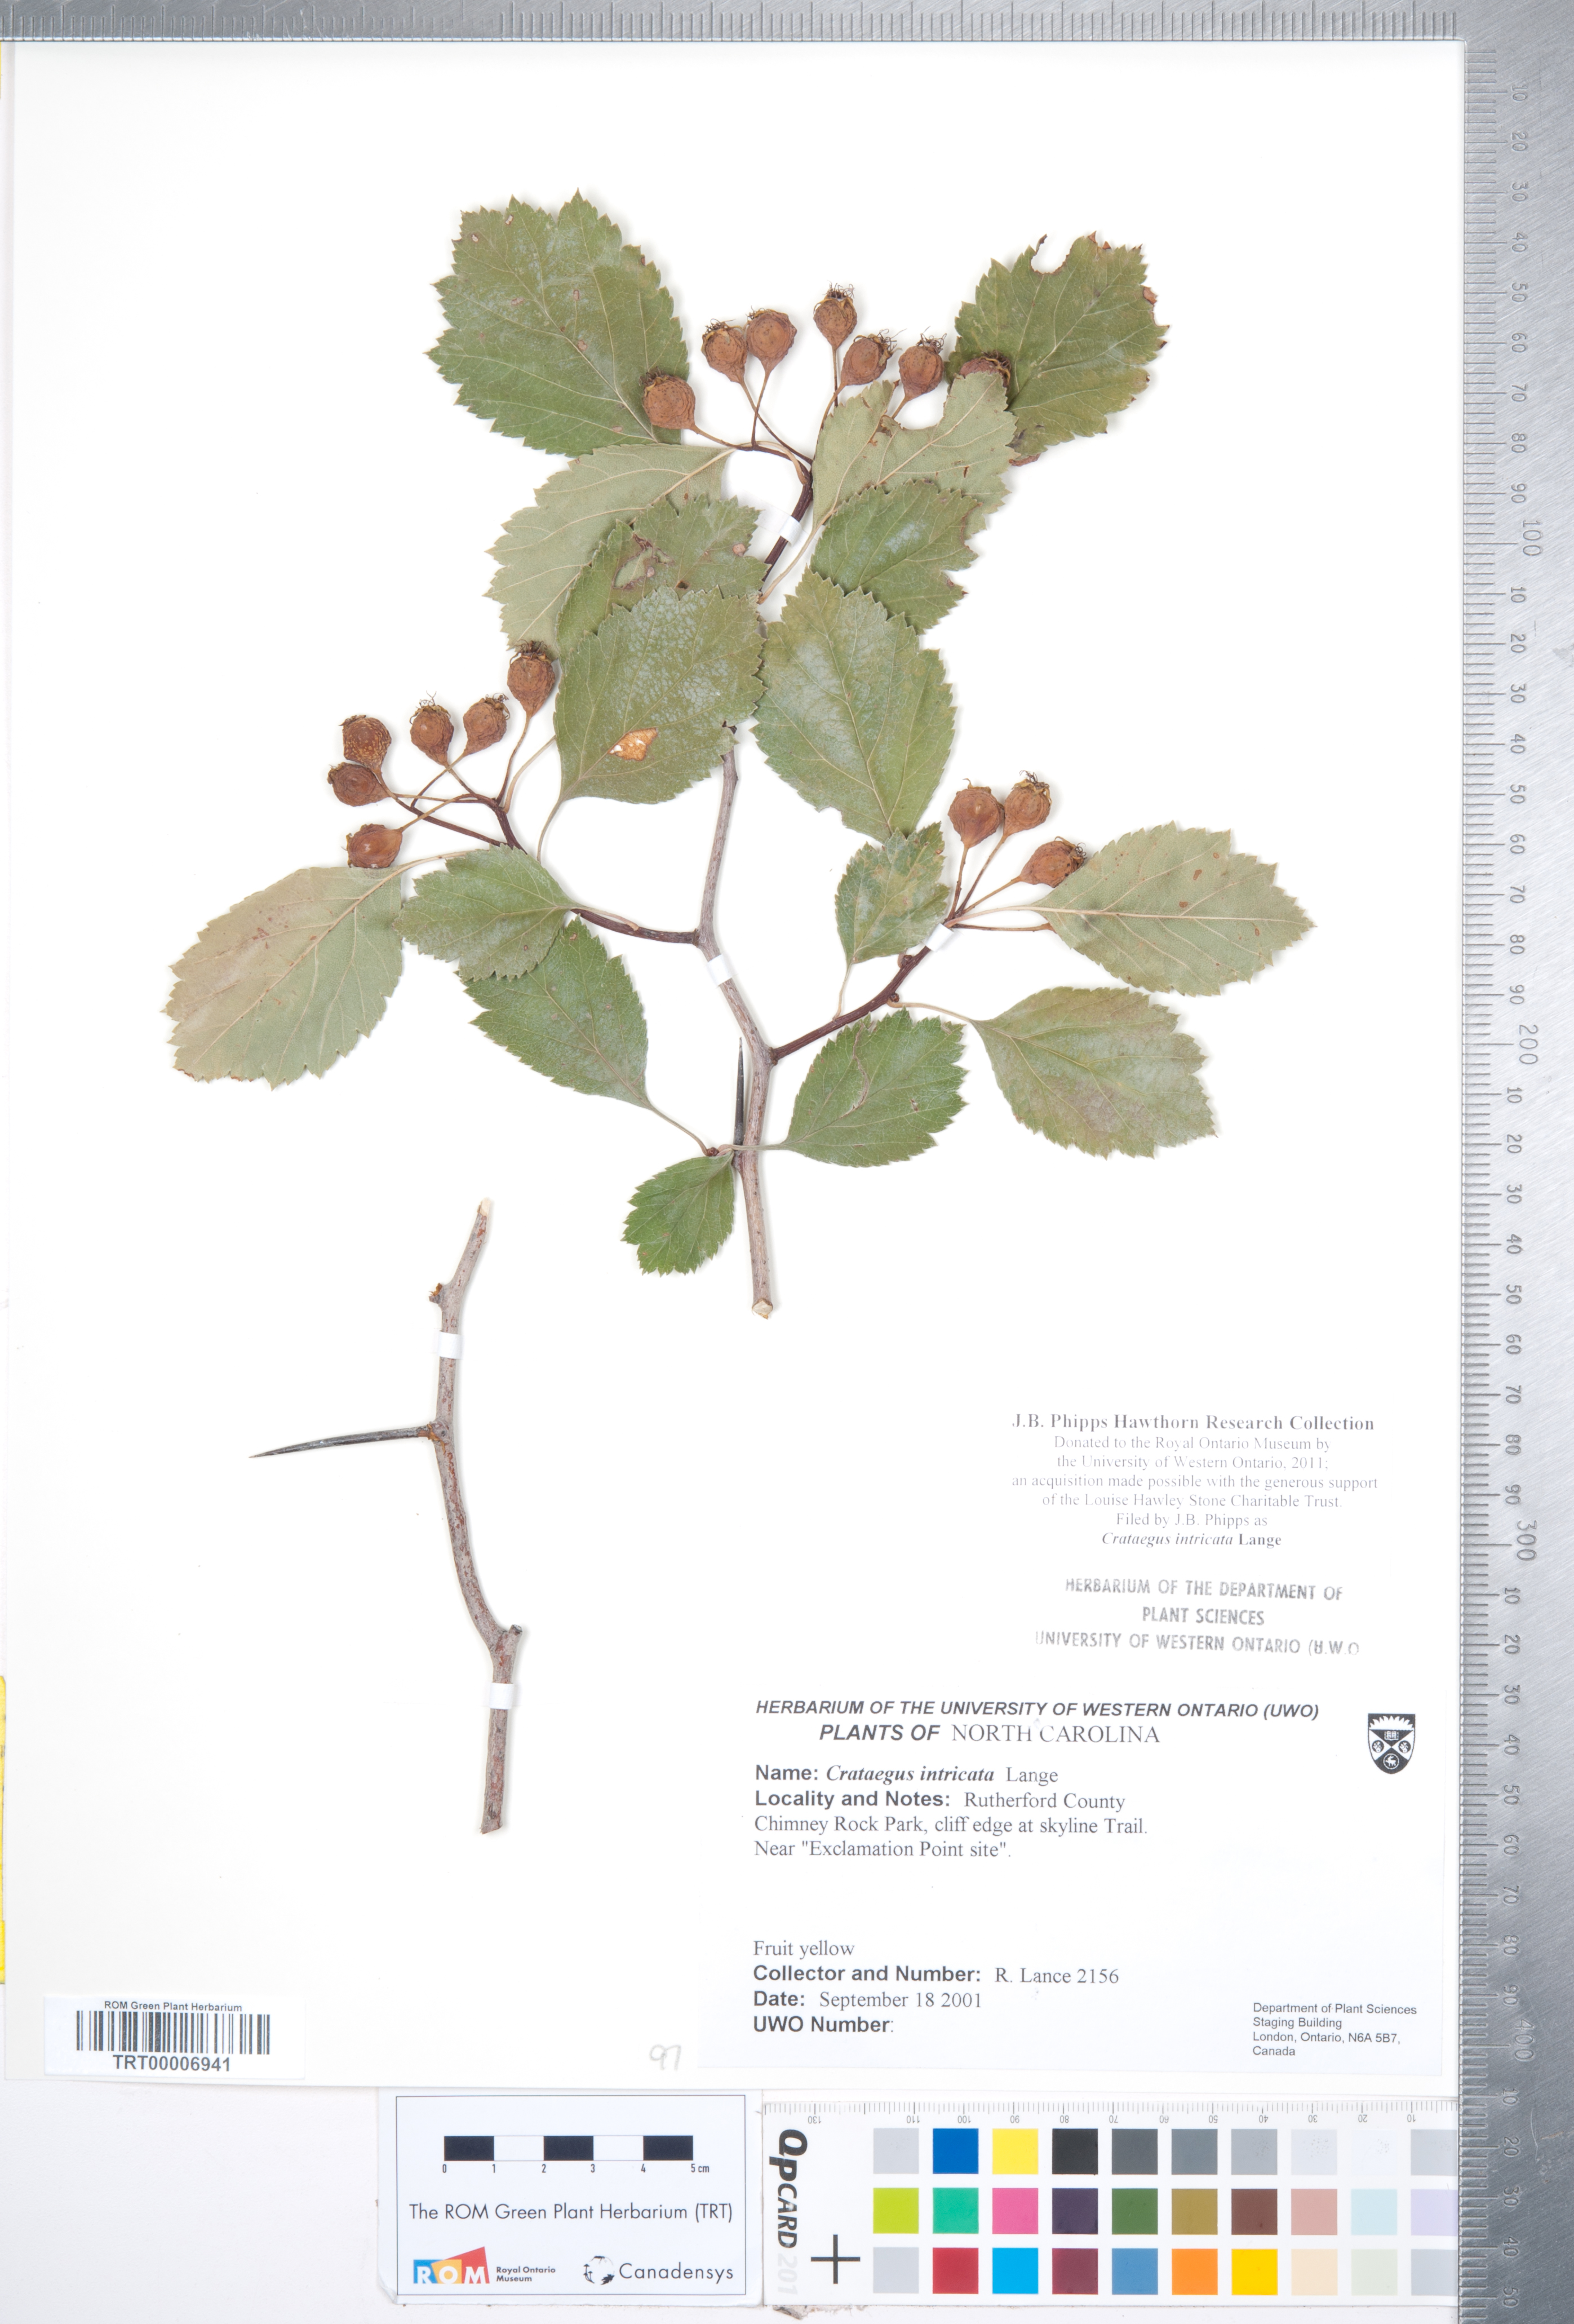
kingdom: Plantae
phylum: Tracheophyta
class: Magnoliopsida
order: Rosales
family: Rosaceae
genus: Crataegus
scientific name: Crataegus intricata
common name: Biltmore hawthorn
